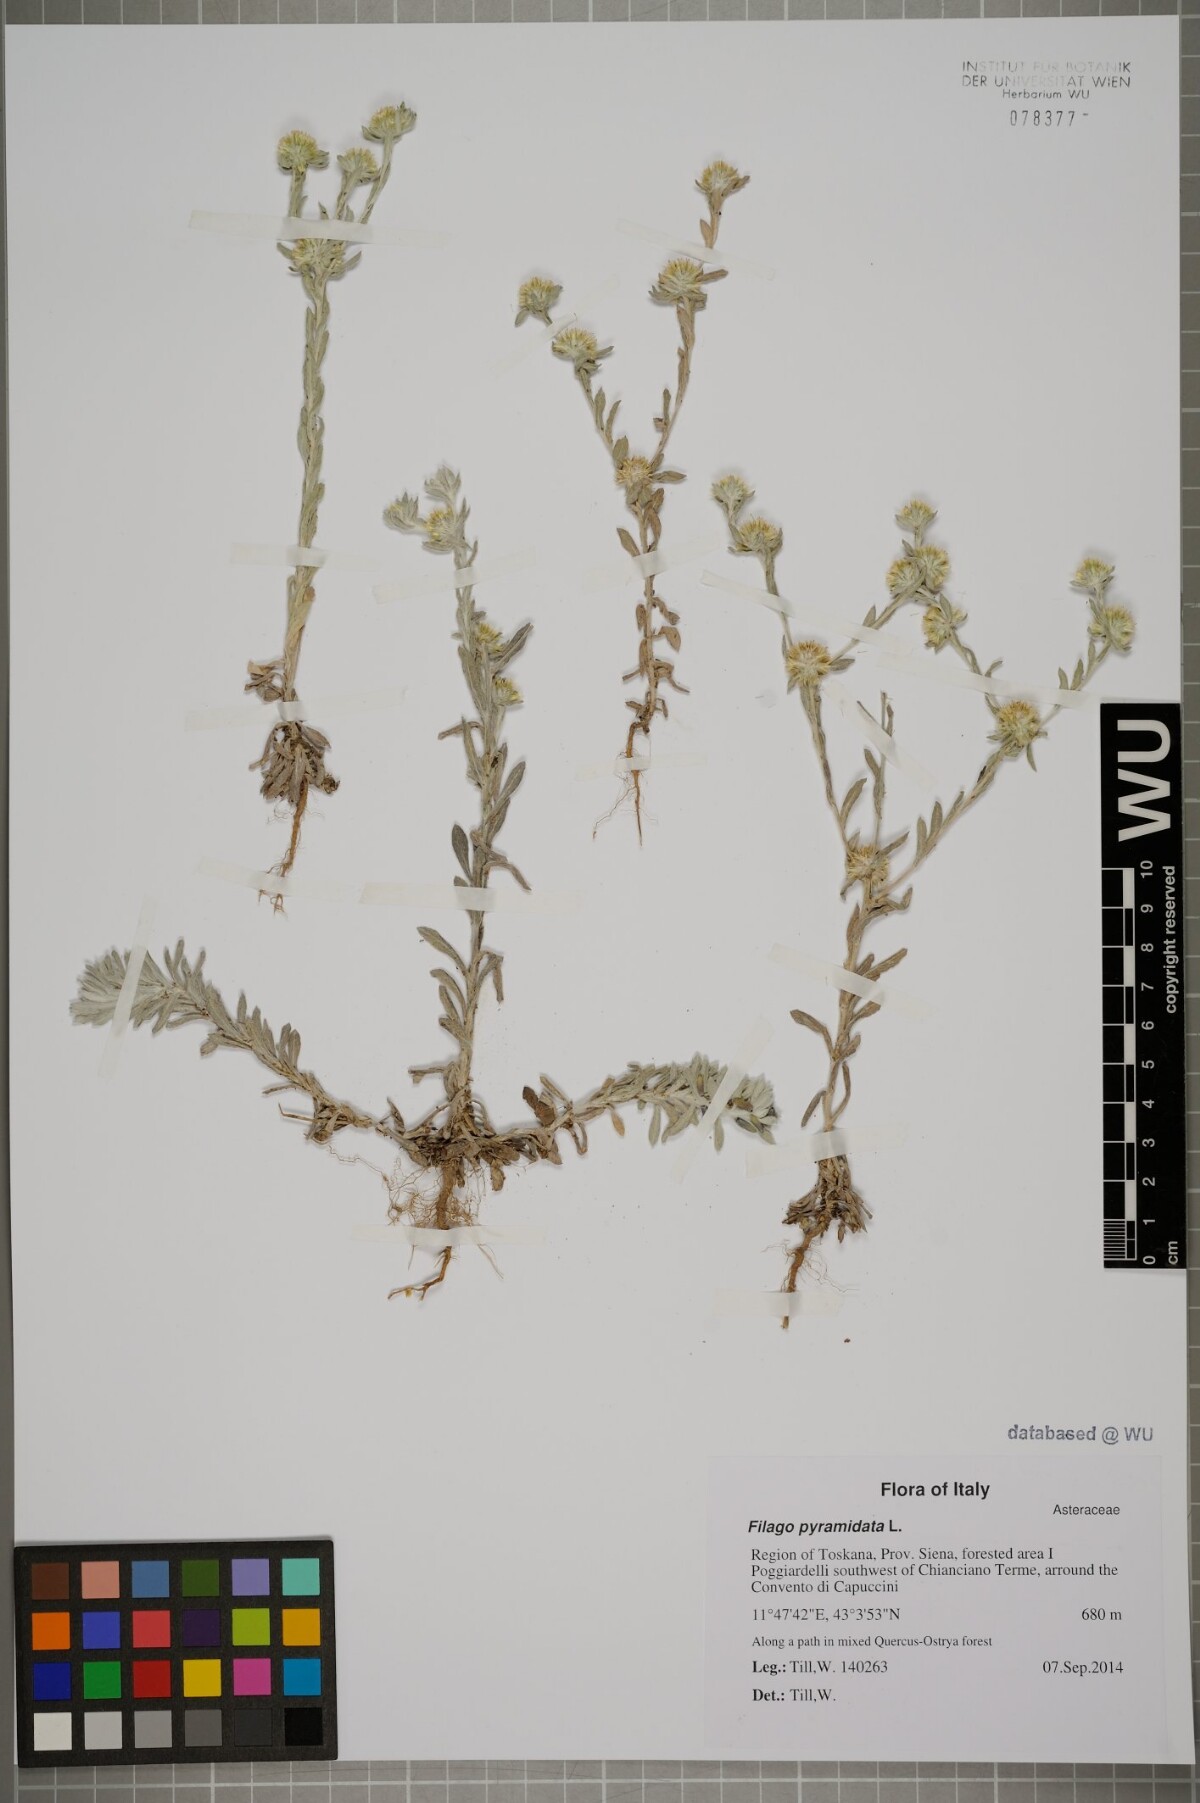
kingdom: Plantae
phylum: Tracheophyta
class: Magnoliopsida
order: Asterales
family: Asteraceae
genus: Filago
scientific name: Filago pyramidata
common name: Broad-leaved cudweed
